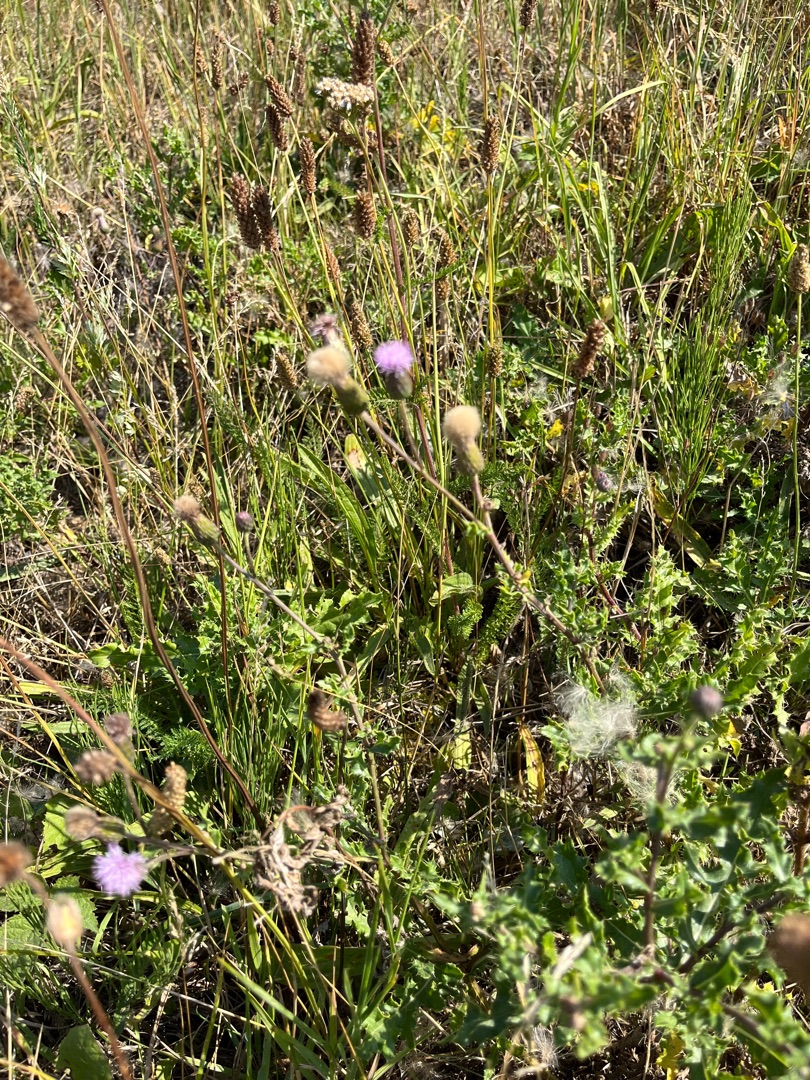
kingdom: Plantae
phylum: Tracheophyta
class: Magnoliopsida
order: Asterales
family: Asteraceae
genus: Cirsium
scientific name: Cirsium arvense
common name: Ager-tidsel
